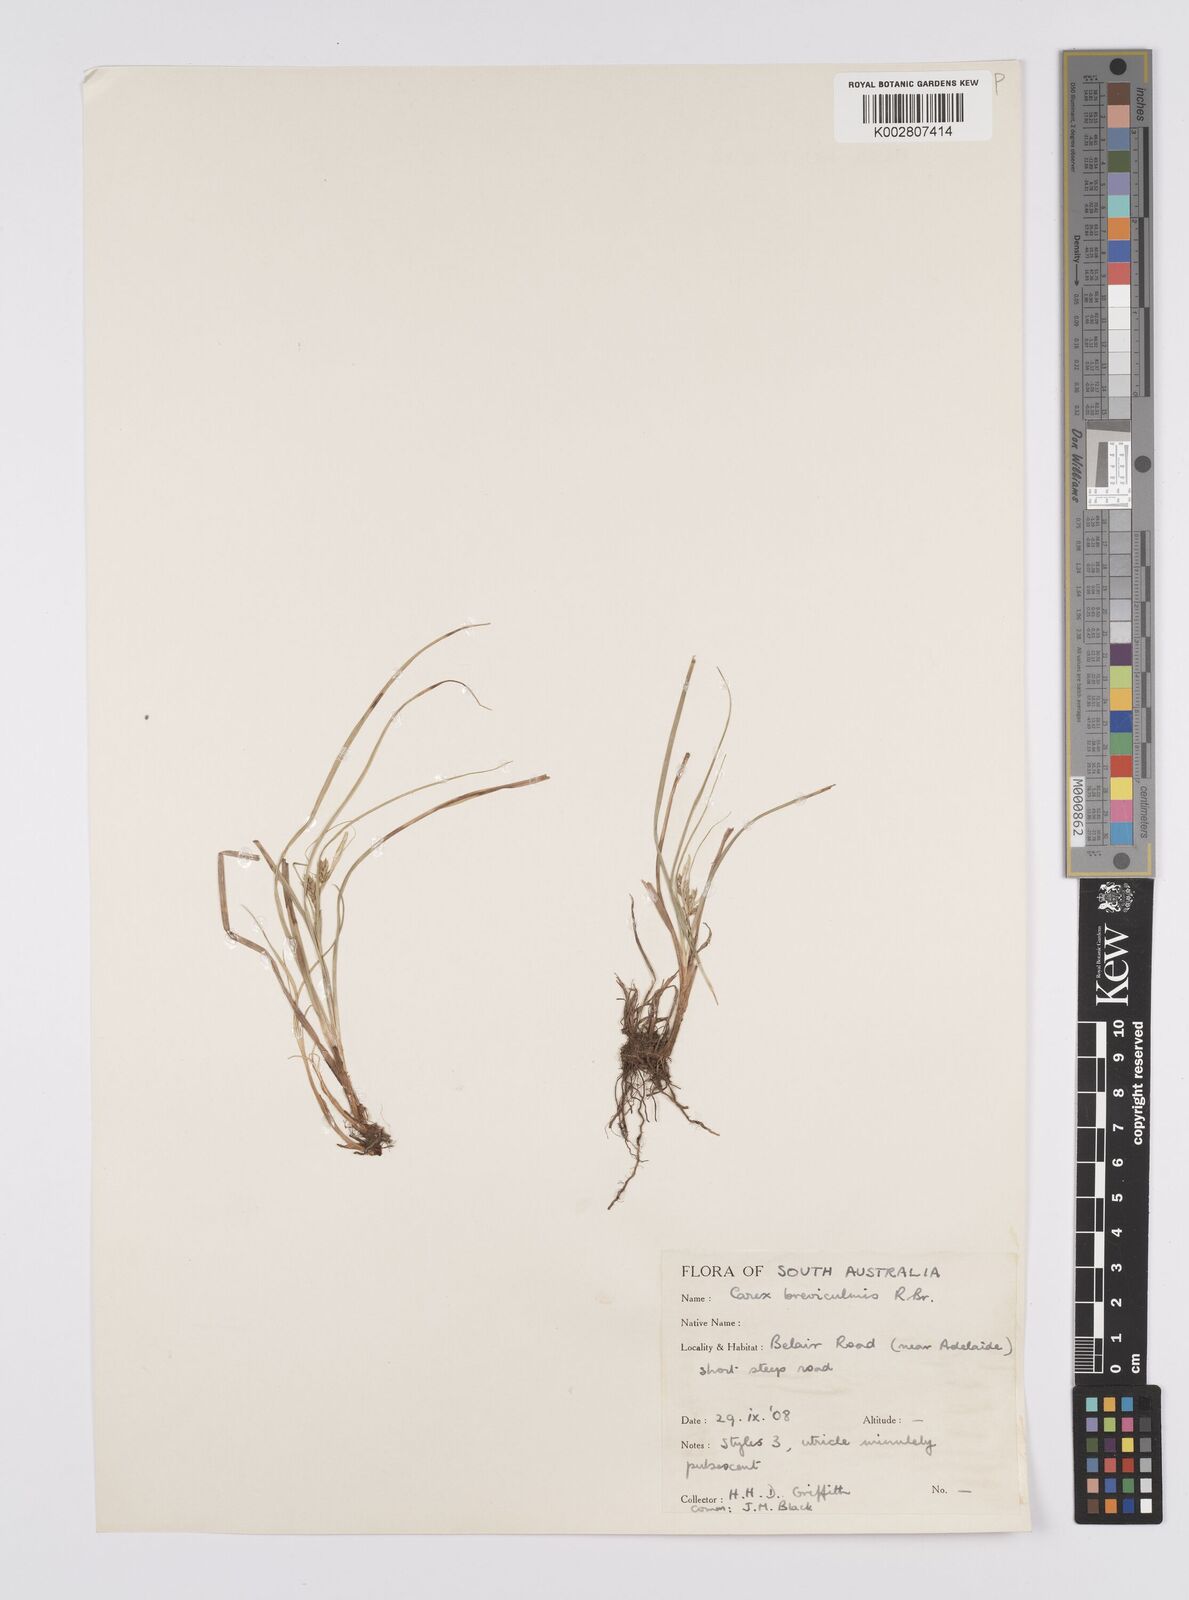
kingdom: Plantae
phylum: Tracheophyta
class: Liliopsida
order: Poales
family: Cyperaceae
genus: Carex
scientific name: Carex breviculmis
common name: Asian shortstem sedge
